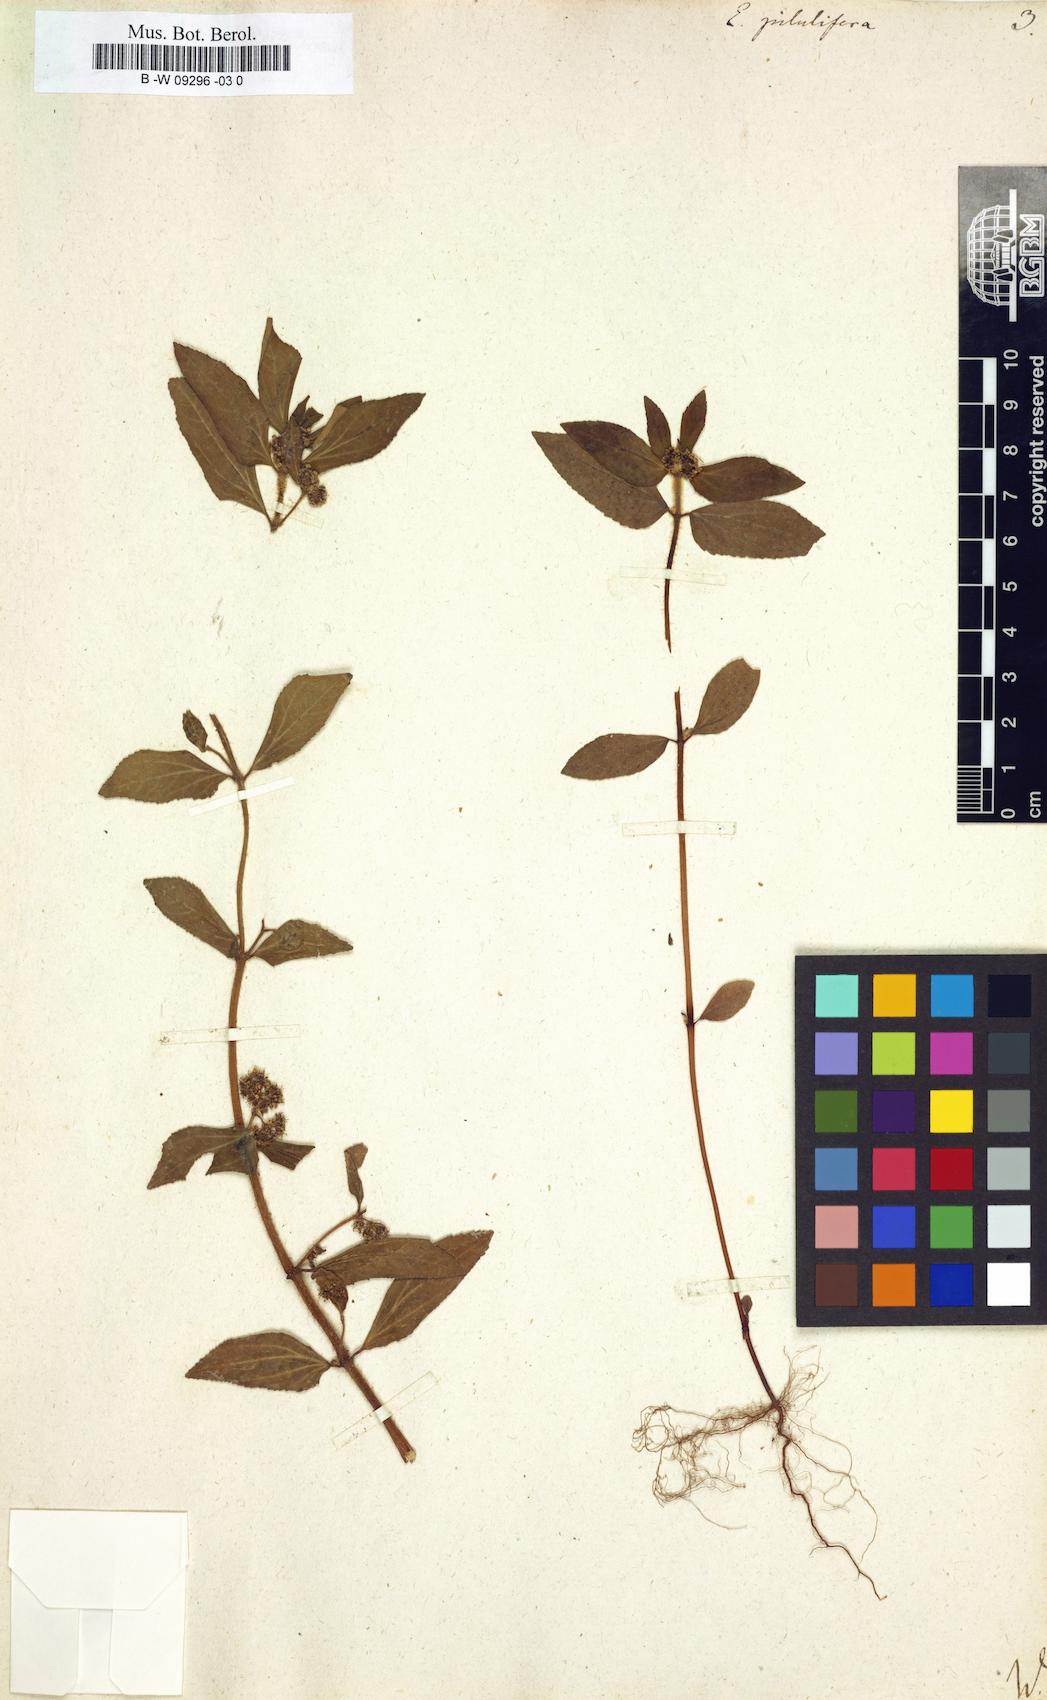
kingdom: Plantae
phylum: Tracheophyta
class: Magnoliopsida
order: Malpighiales
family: Euphorbiaceae
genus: Euphorbia
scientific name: Euphorbia pilulifera
